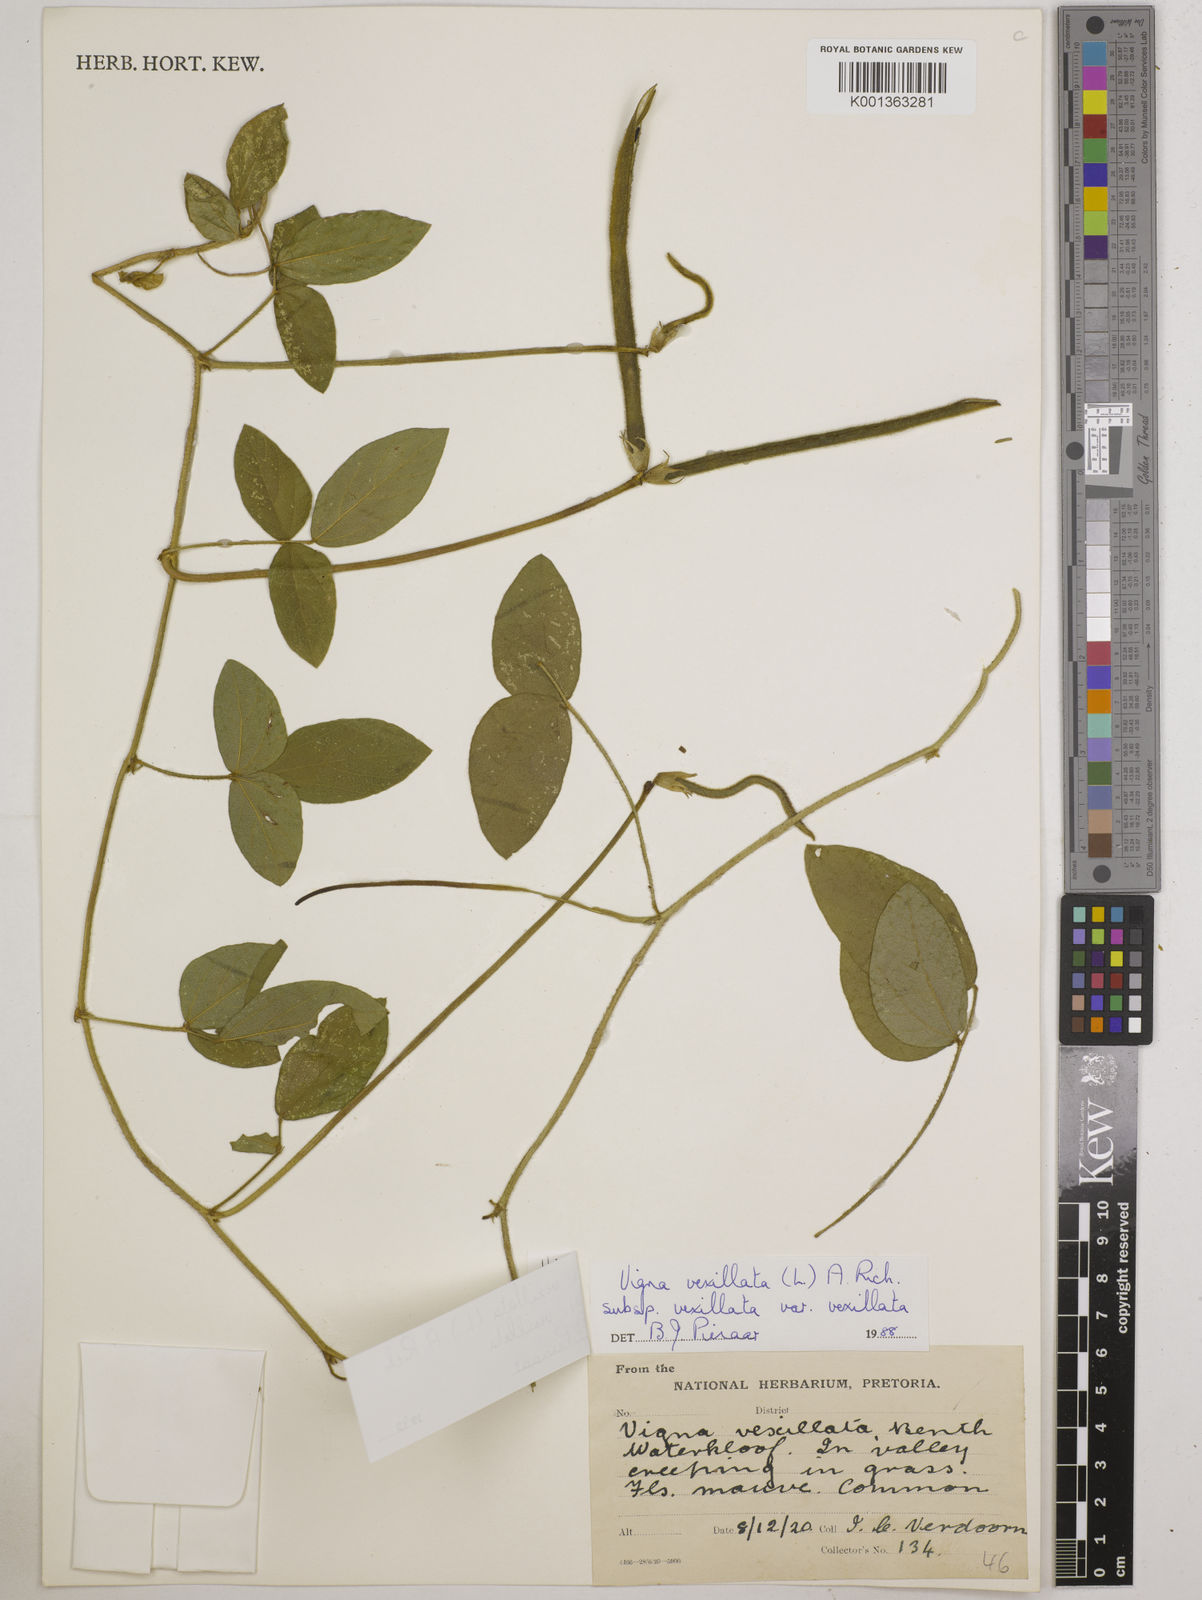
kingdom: Plantae
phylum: Tracheophyta
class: Magnoliopsida
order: Fabales
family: Fabaceae
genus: Vigna
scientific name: Vigna
